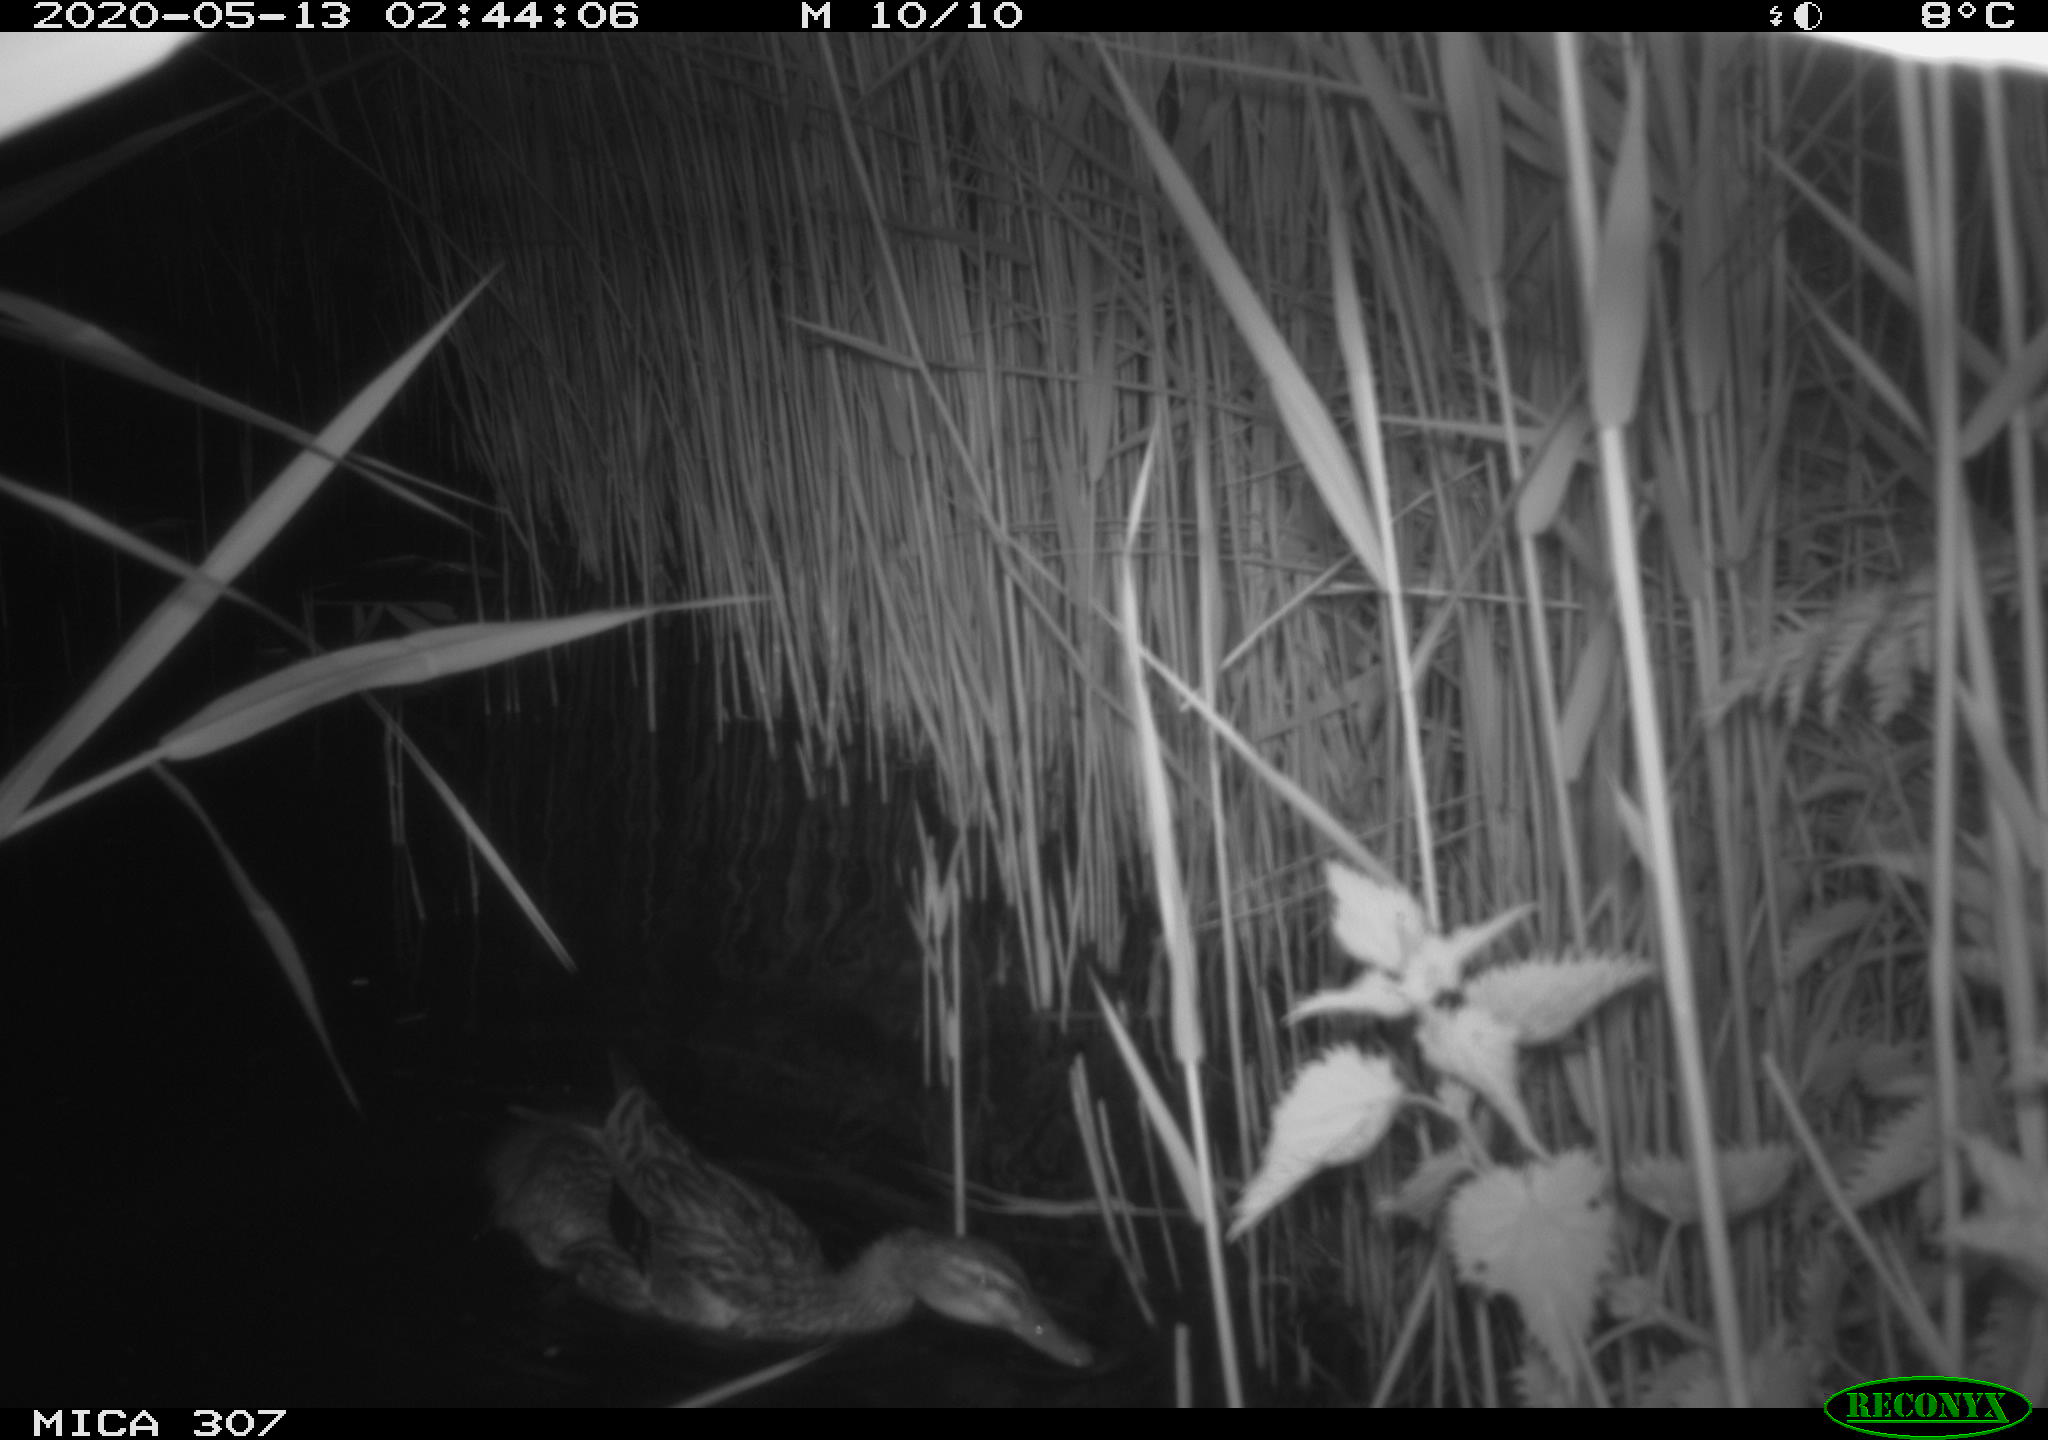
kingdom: Animalia
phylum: Chordata
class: Aves
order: Anseriformes
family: Anatidae
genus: Anas
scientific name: Anas platyrhynchos
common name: Mallard
